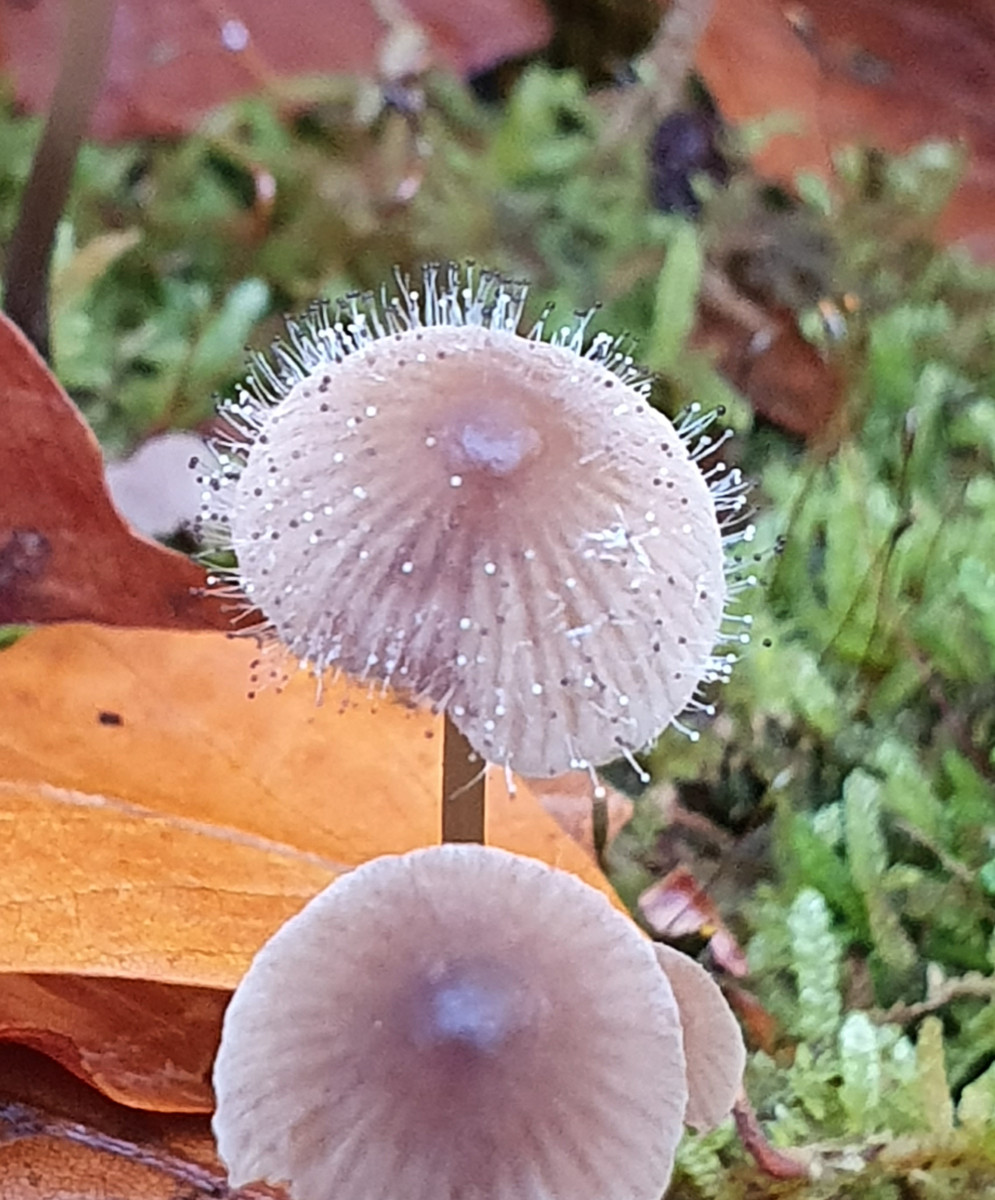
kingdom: Fungi
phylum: Mucoromycota
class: Mucoromycetes
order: Mucorales
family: Phycomycetaceae
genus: Spinellus
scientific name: Spinellus fusiger
